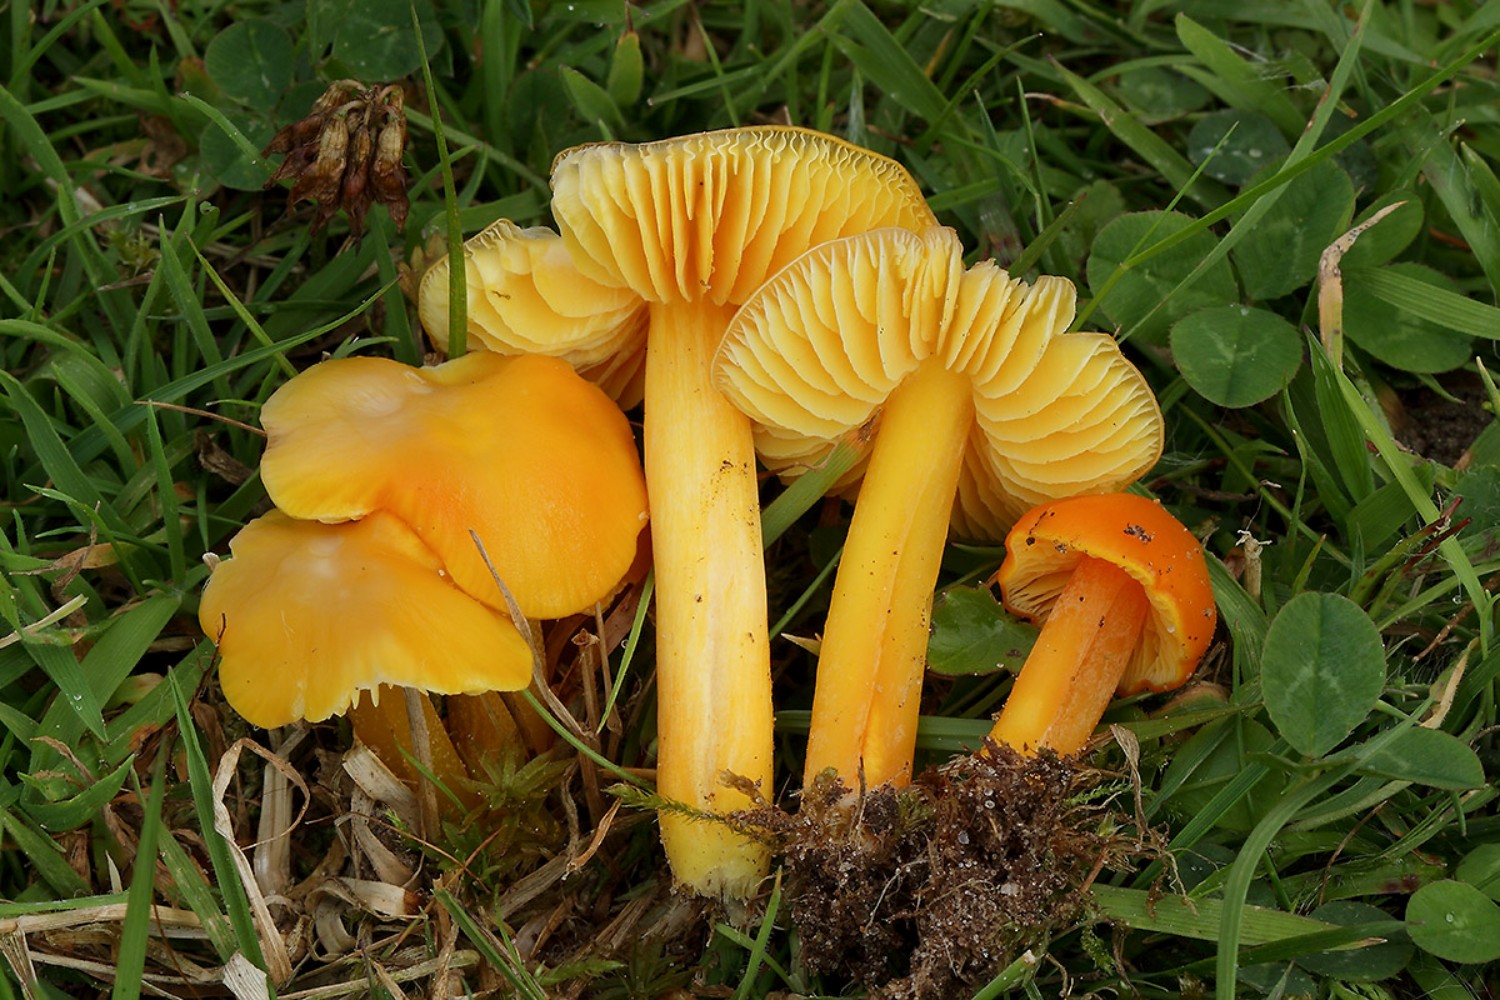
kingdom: Fungi
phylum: Basidiomycota
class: Agaricomycetes
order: Agaricales
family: Hygrophoraceae
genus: Hygrocybe
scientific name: Hygrocybe chlorophana
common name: gul vokshat
